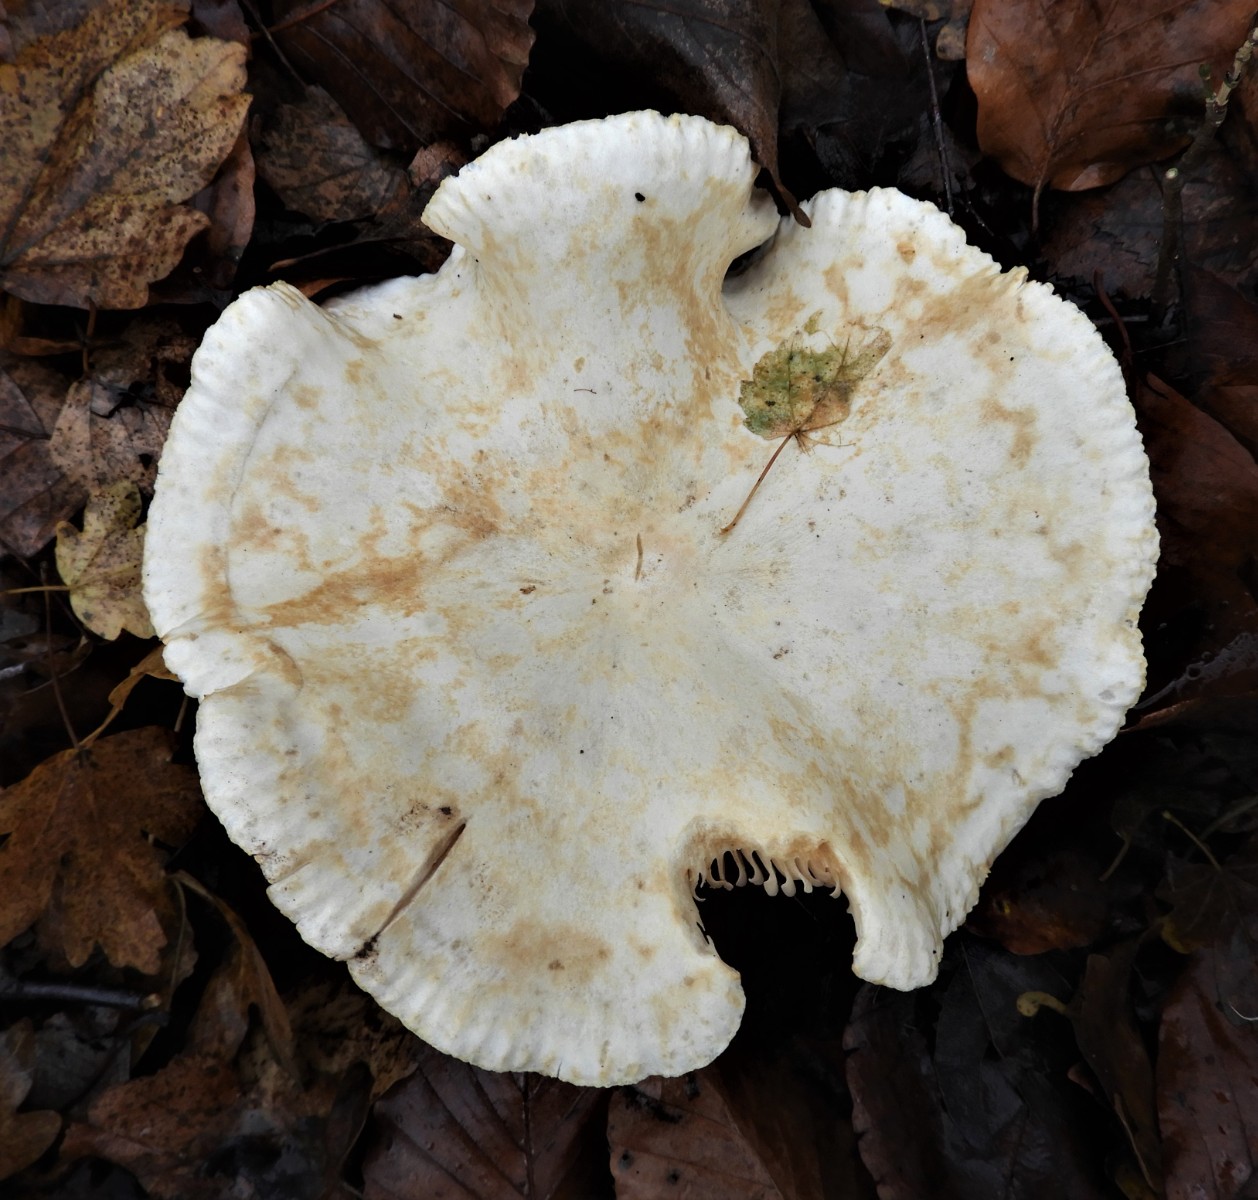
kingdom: Fungi
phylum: Basidiomycota
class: Agaricomycetes
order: Agaricales
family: Tricholomataceae
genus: Tricholoma
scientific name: Tricholoma stiparophyllum
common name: hvid ridderhat
